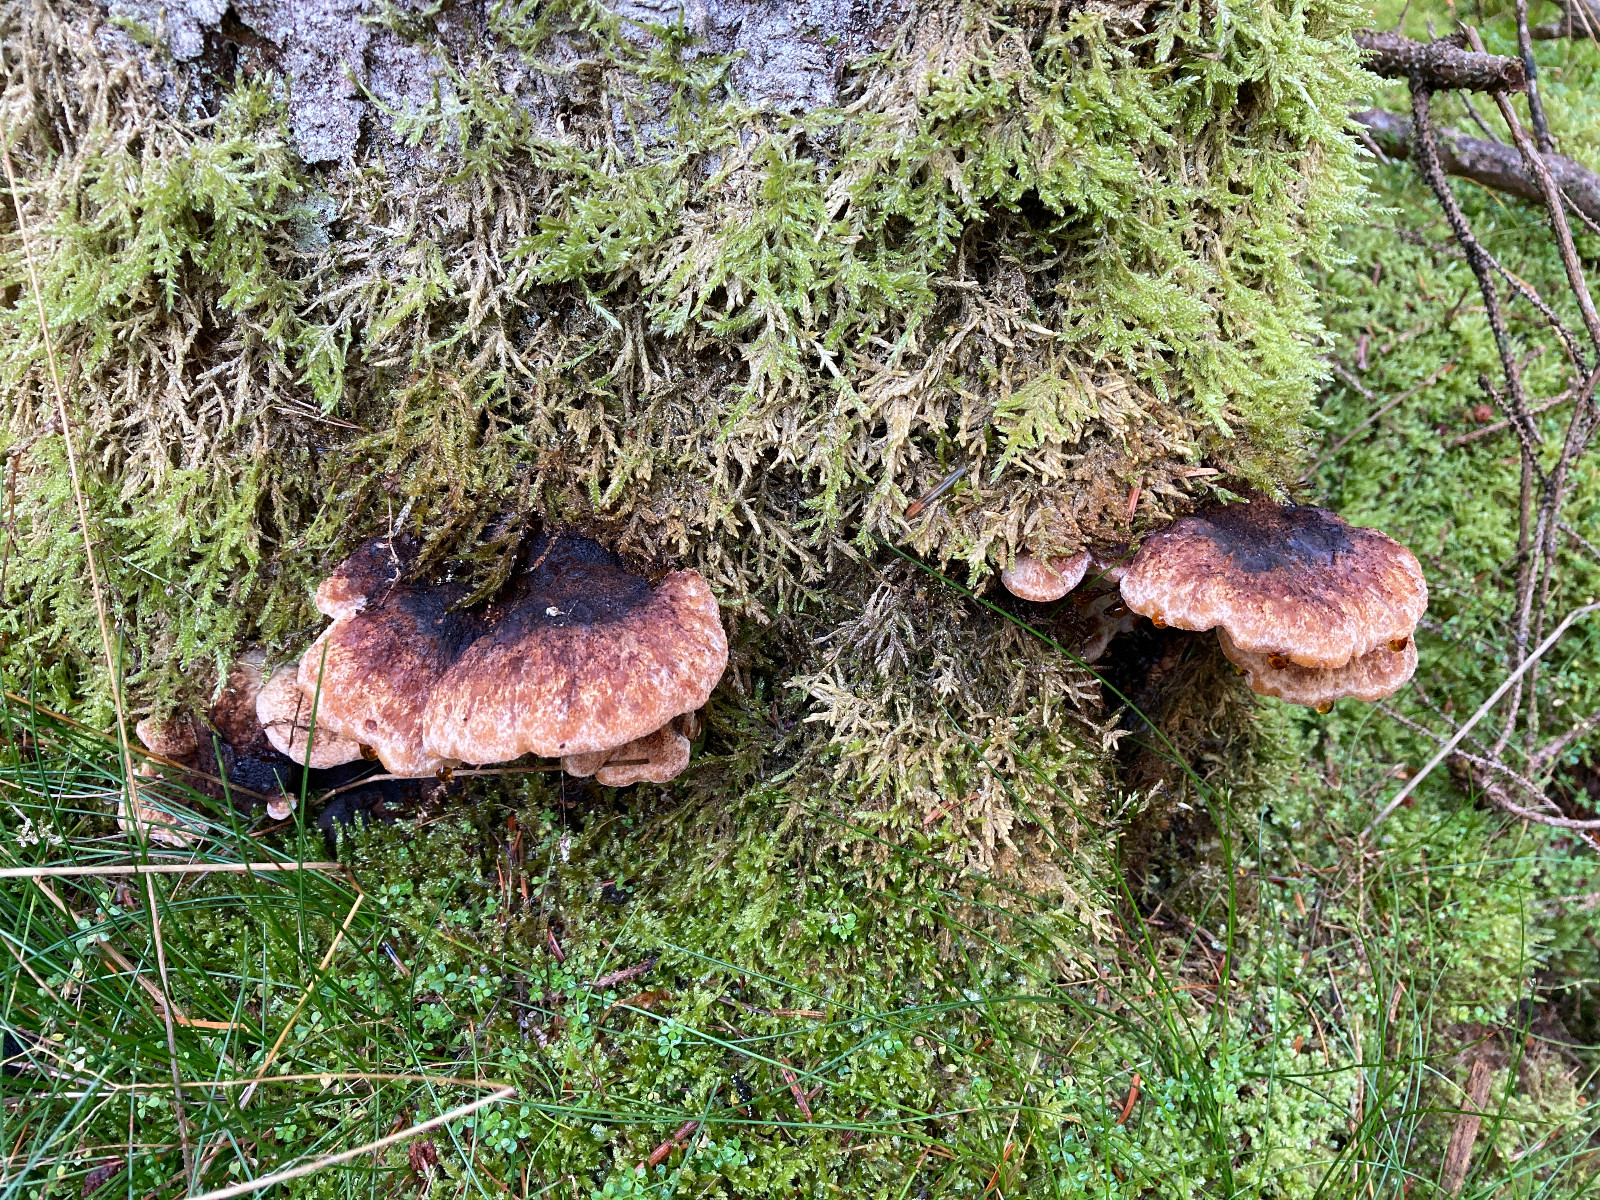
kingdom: Fungi
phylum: Basidiomycota
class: Agaricomycetes
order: Polyporales
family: Ischnodermataceae
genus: Ischnoderma
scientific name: Ischnoderma benzoinum
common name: gran-tjæreporesvamp
